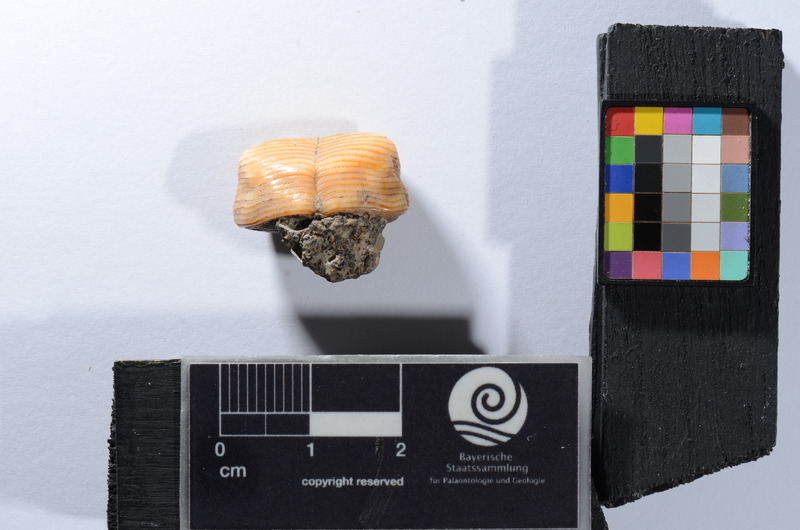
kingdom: Animalia
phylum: Chordata
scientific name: Chordata
